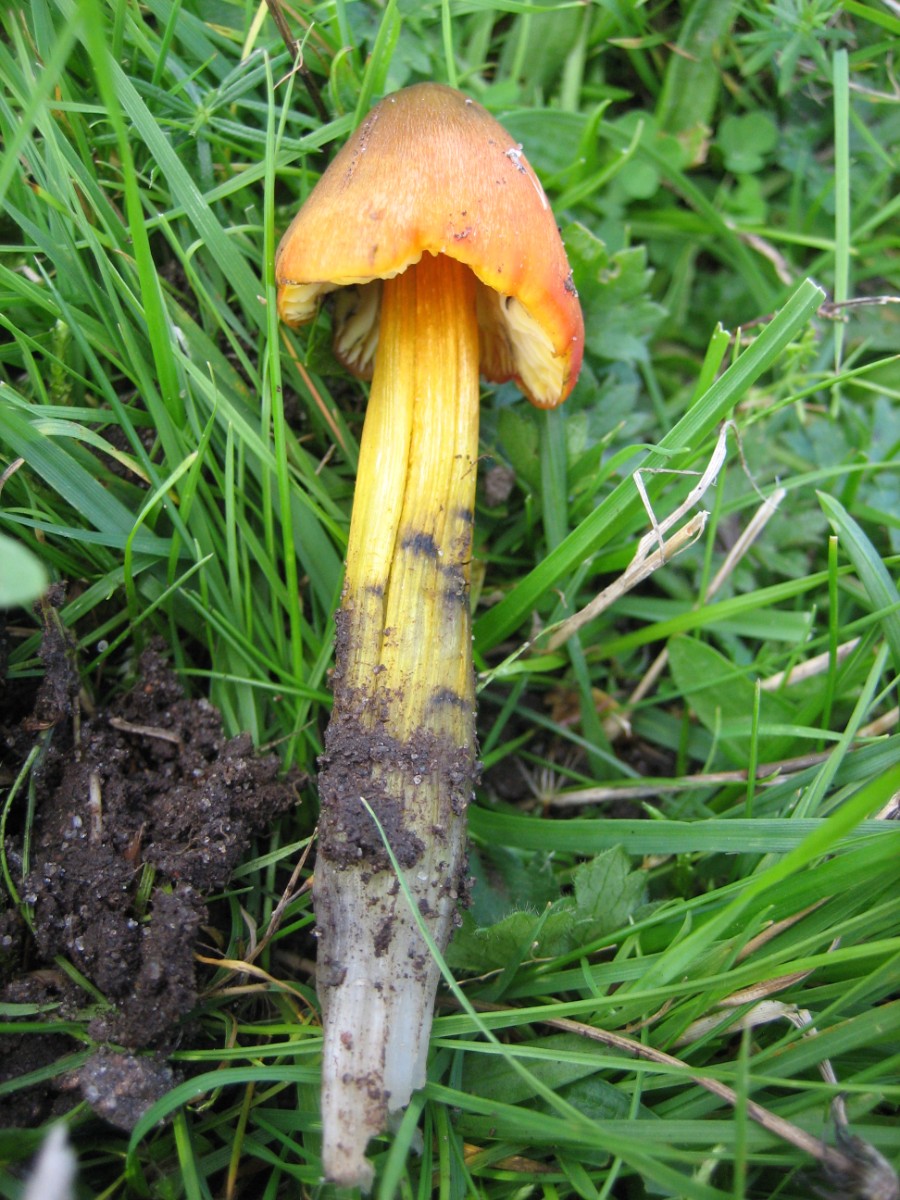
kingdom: Fungi
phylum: Basidiomycota
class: Agaricomycetes
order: Agaricales
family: Hygrophoraceae
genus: Hygrocybe
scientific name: Hygrocybe conica
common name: kegle-vokshat
